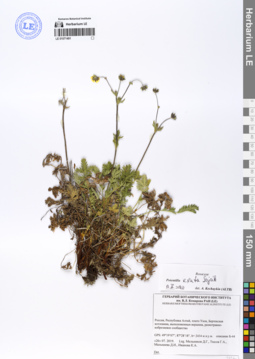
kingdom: Plantae
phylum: Tracheophyta
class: Magnoliopsida
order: Rosales
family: Rosaceae
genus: Potentilla
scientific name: Potentilla exuta
